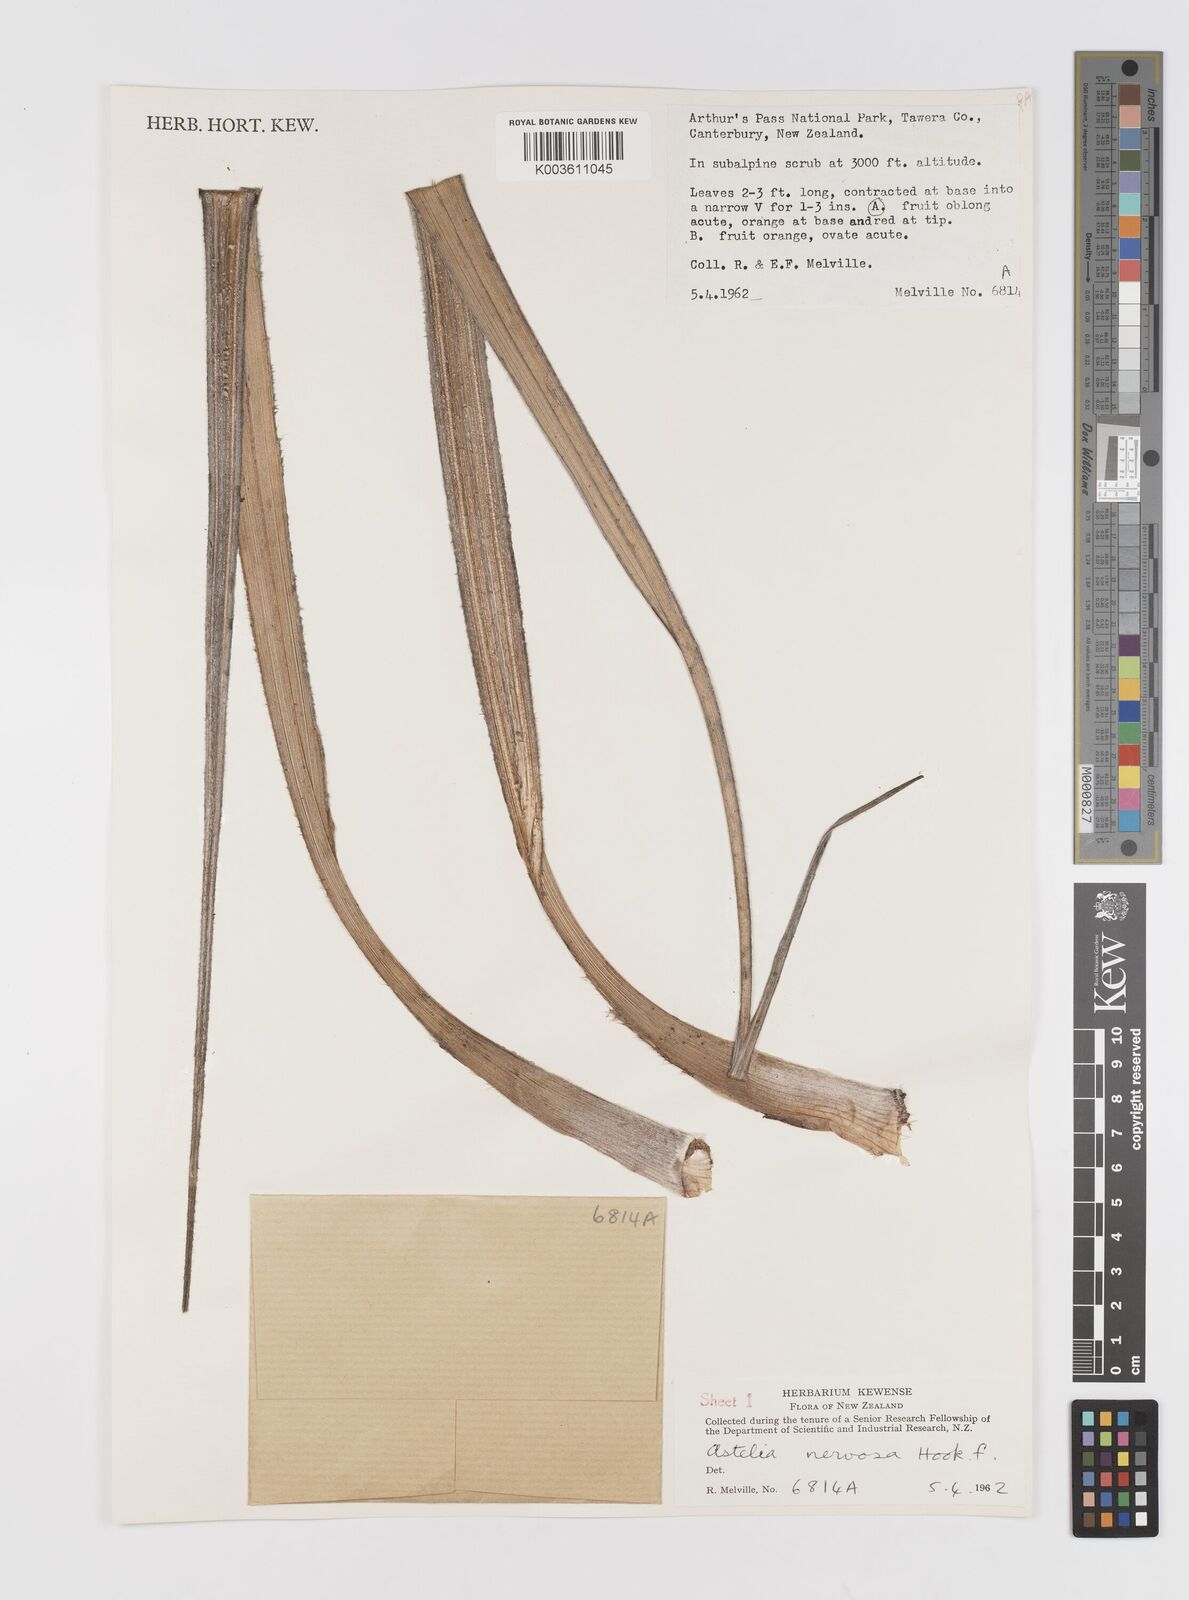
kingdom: Plantae
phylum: Tracheophyta
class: Liliopsida
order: Asparagales
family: Asteliaceae
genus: Astelia
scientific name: Astelia nervosa
